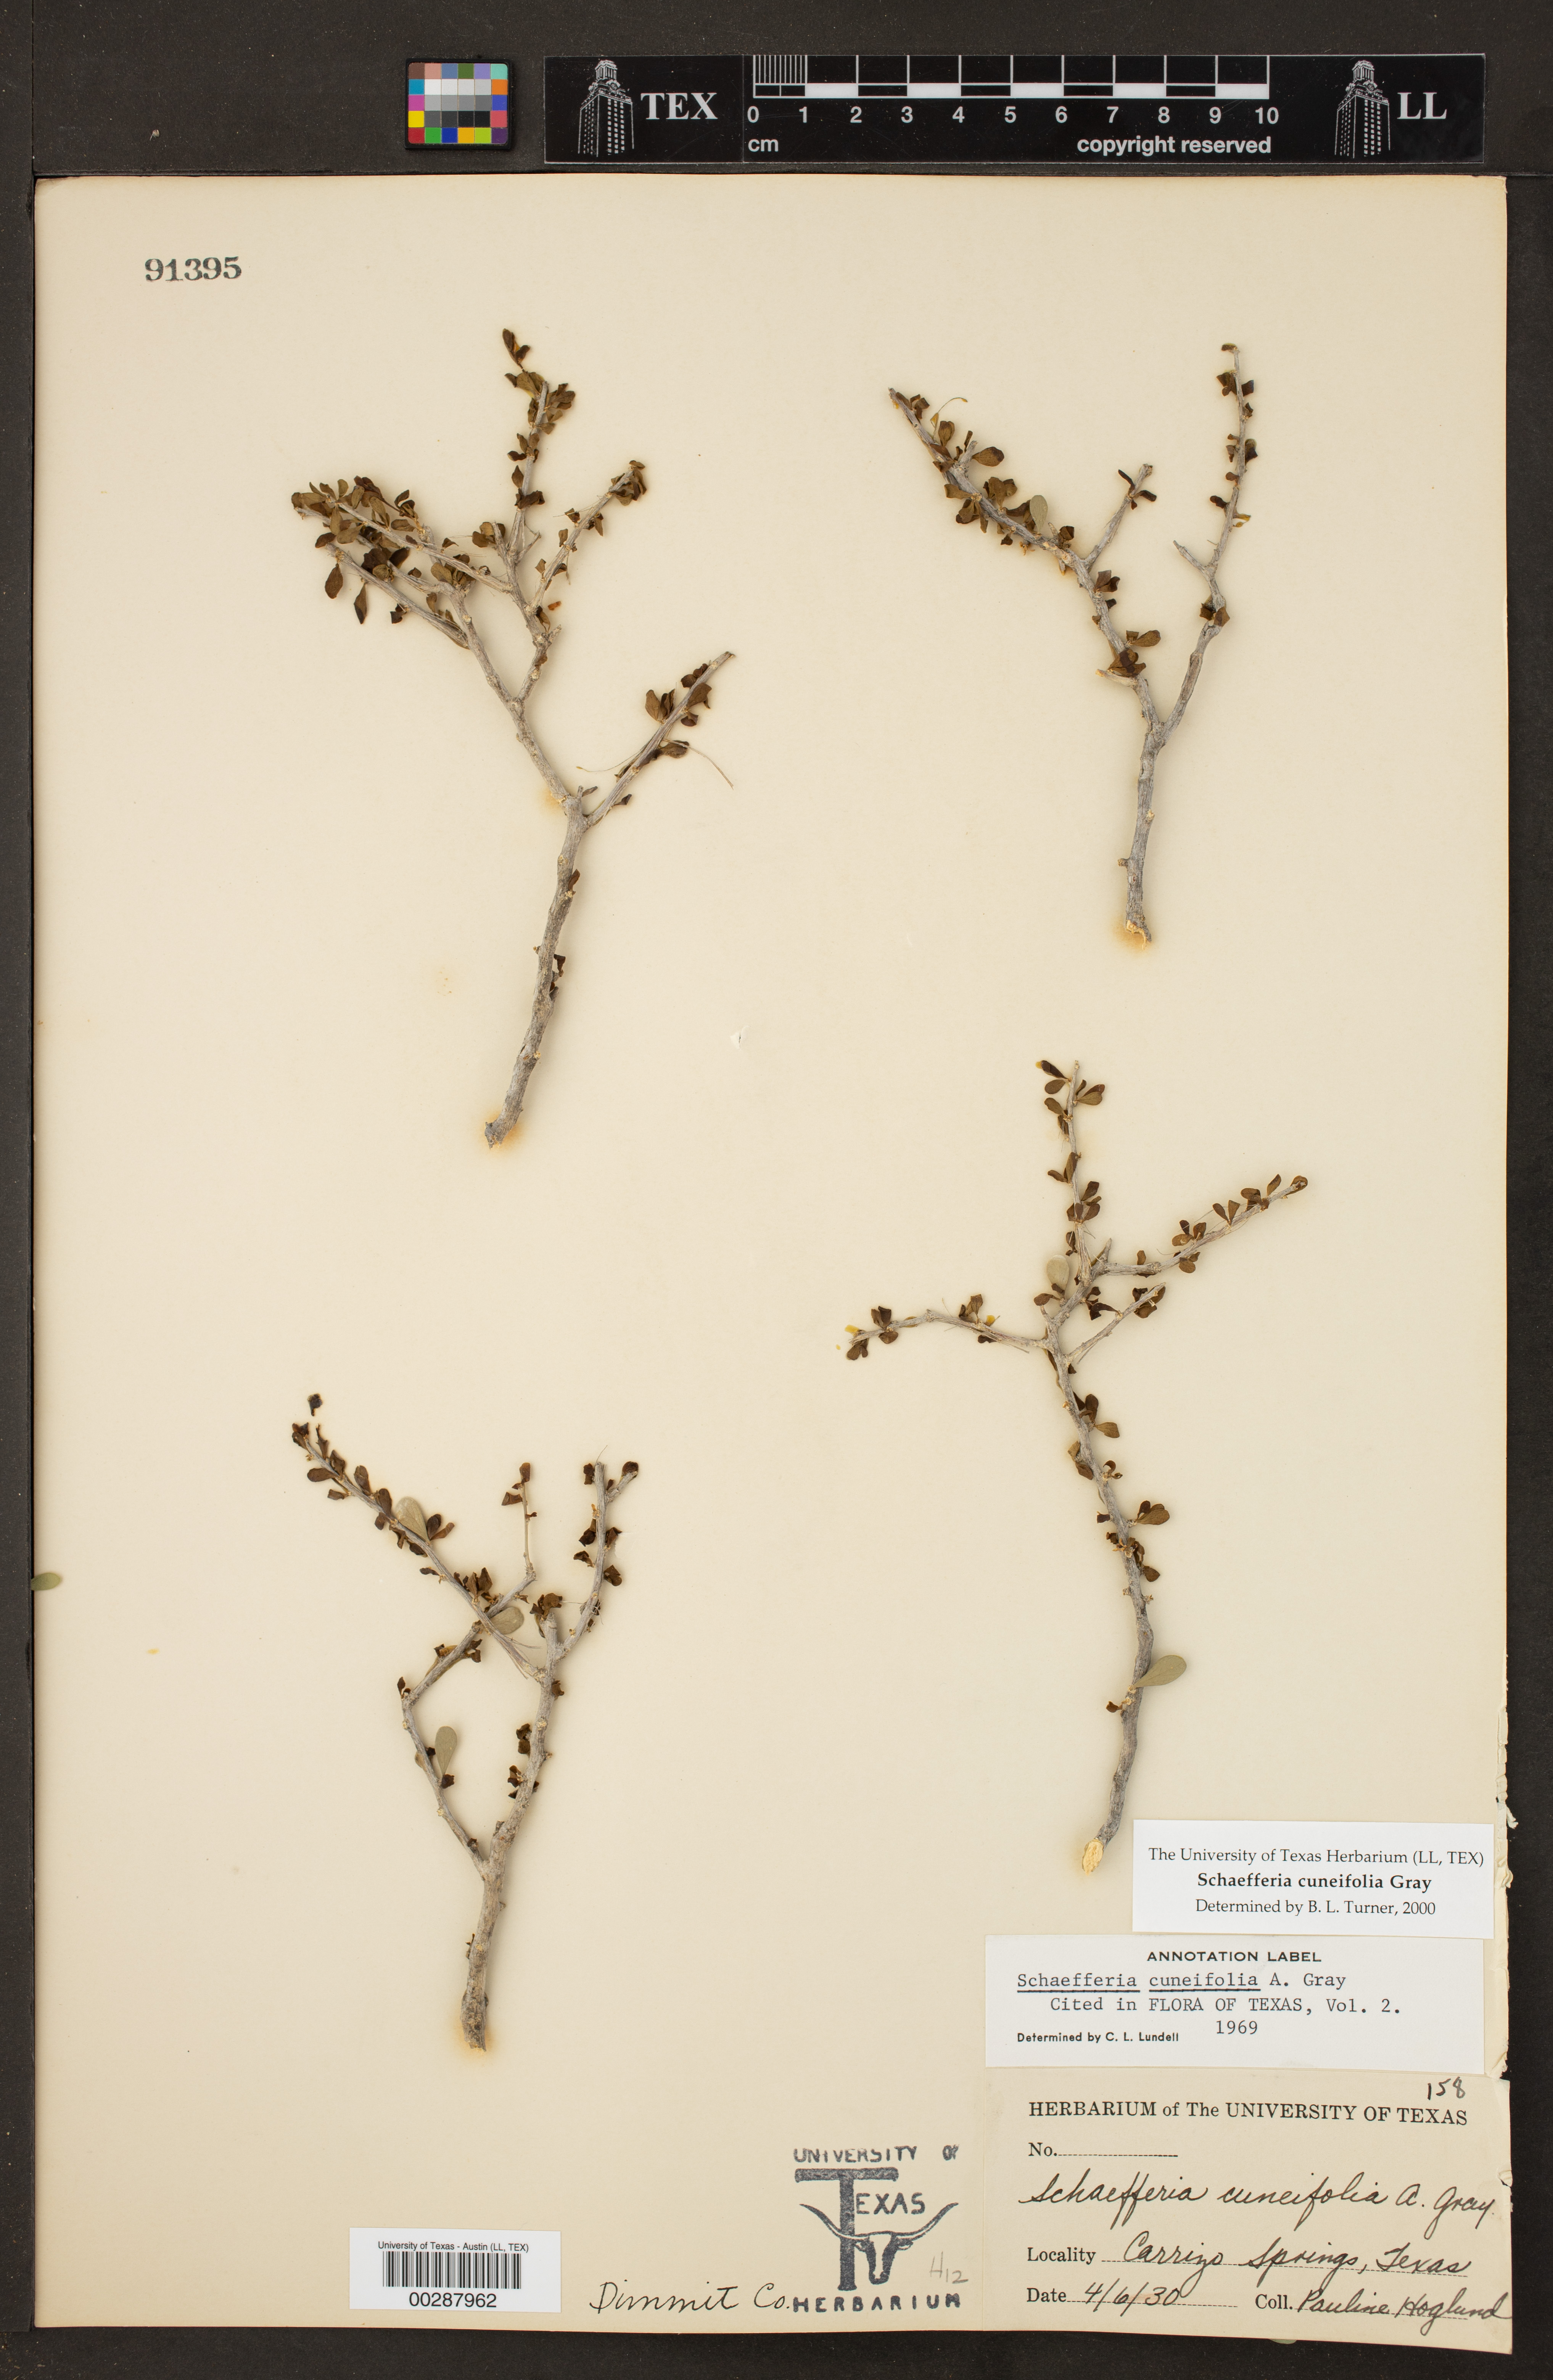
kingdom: Plantae
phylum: Tracheophyta
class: Magnoliopsida
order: Celastrales
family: Celastraceae
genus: Schaefferia
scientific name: Schaefferia cuneifolia
